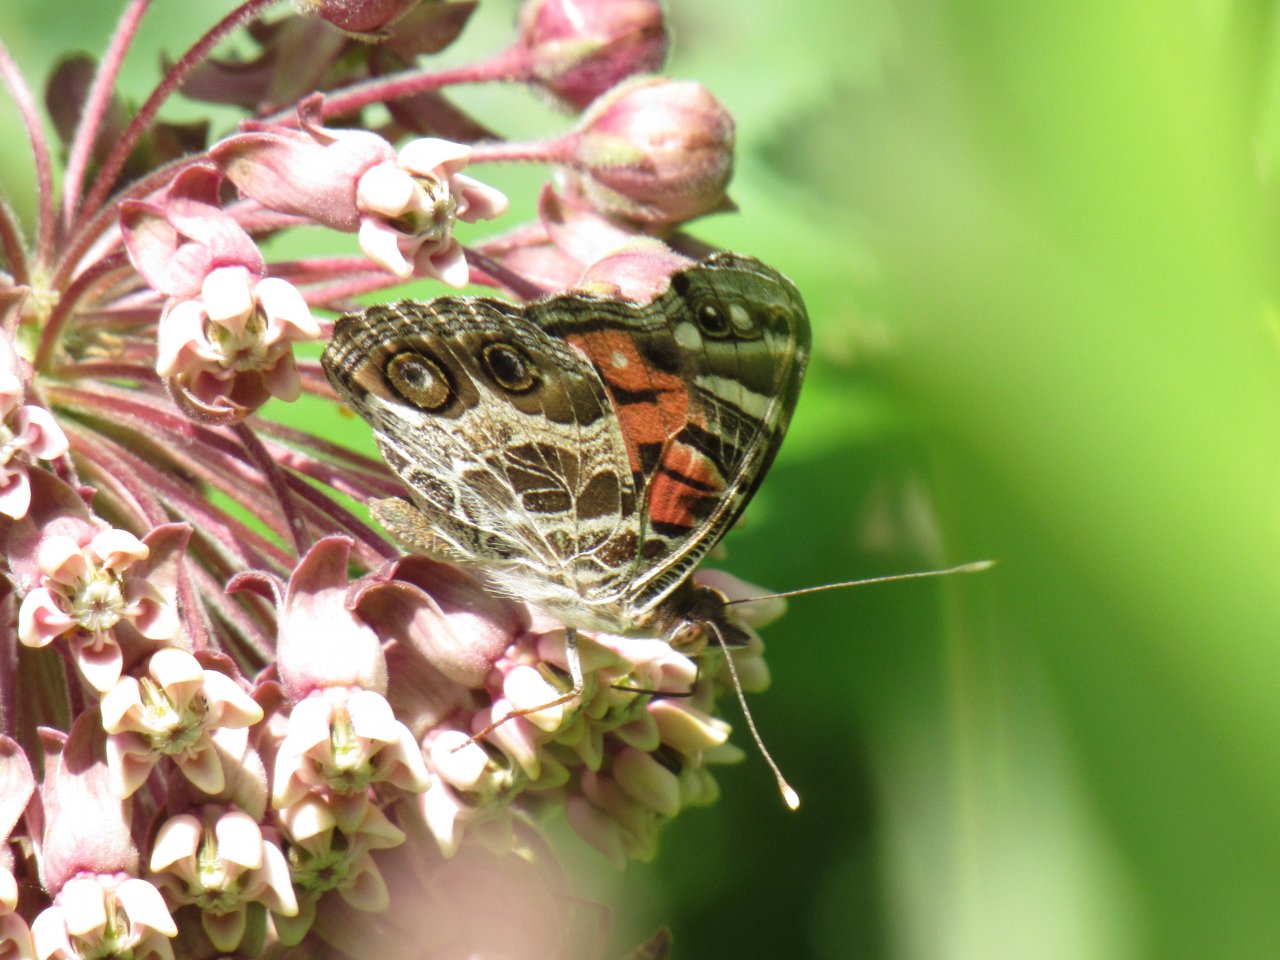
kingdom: Animalia
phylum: Arthropoda
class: Insecta
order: Lepidoptera
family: Nymphalidae
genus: Vanessa
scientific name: Vanessa virginiensis
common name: American Lady
